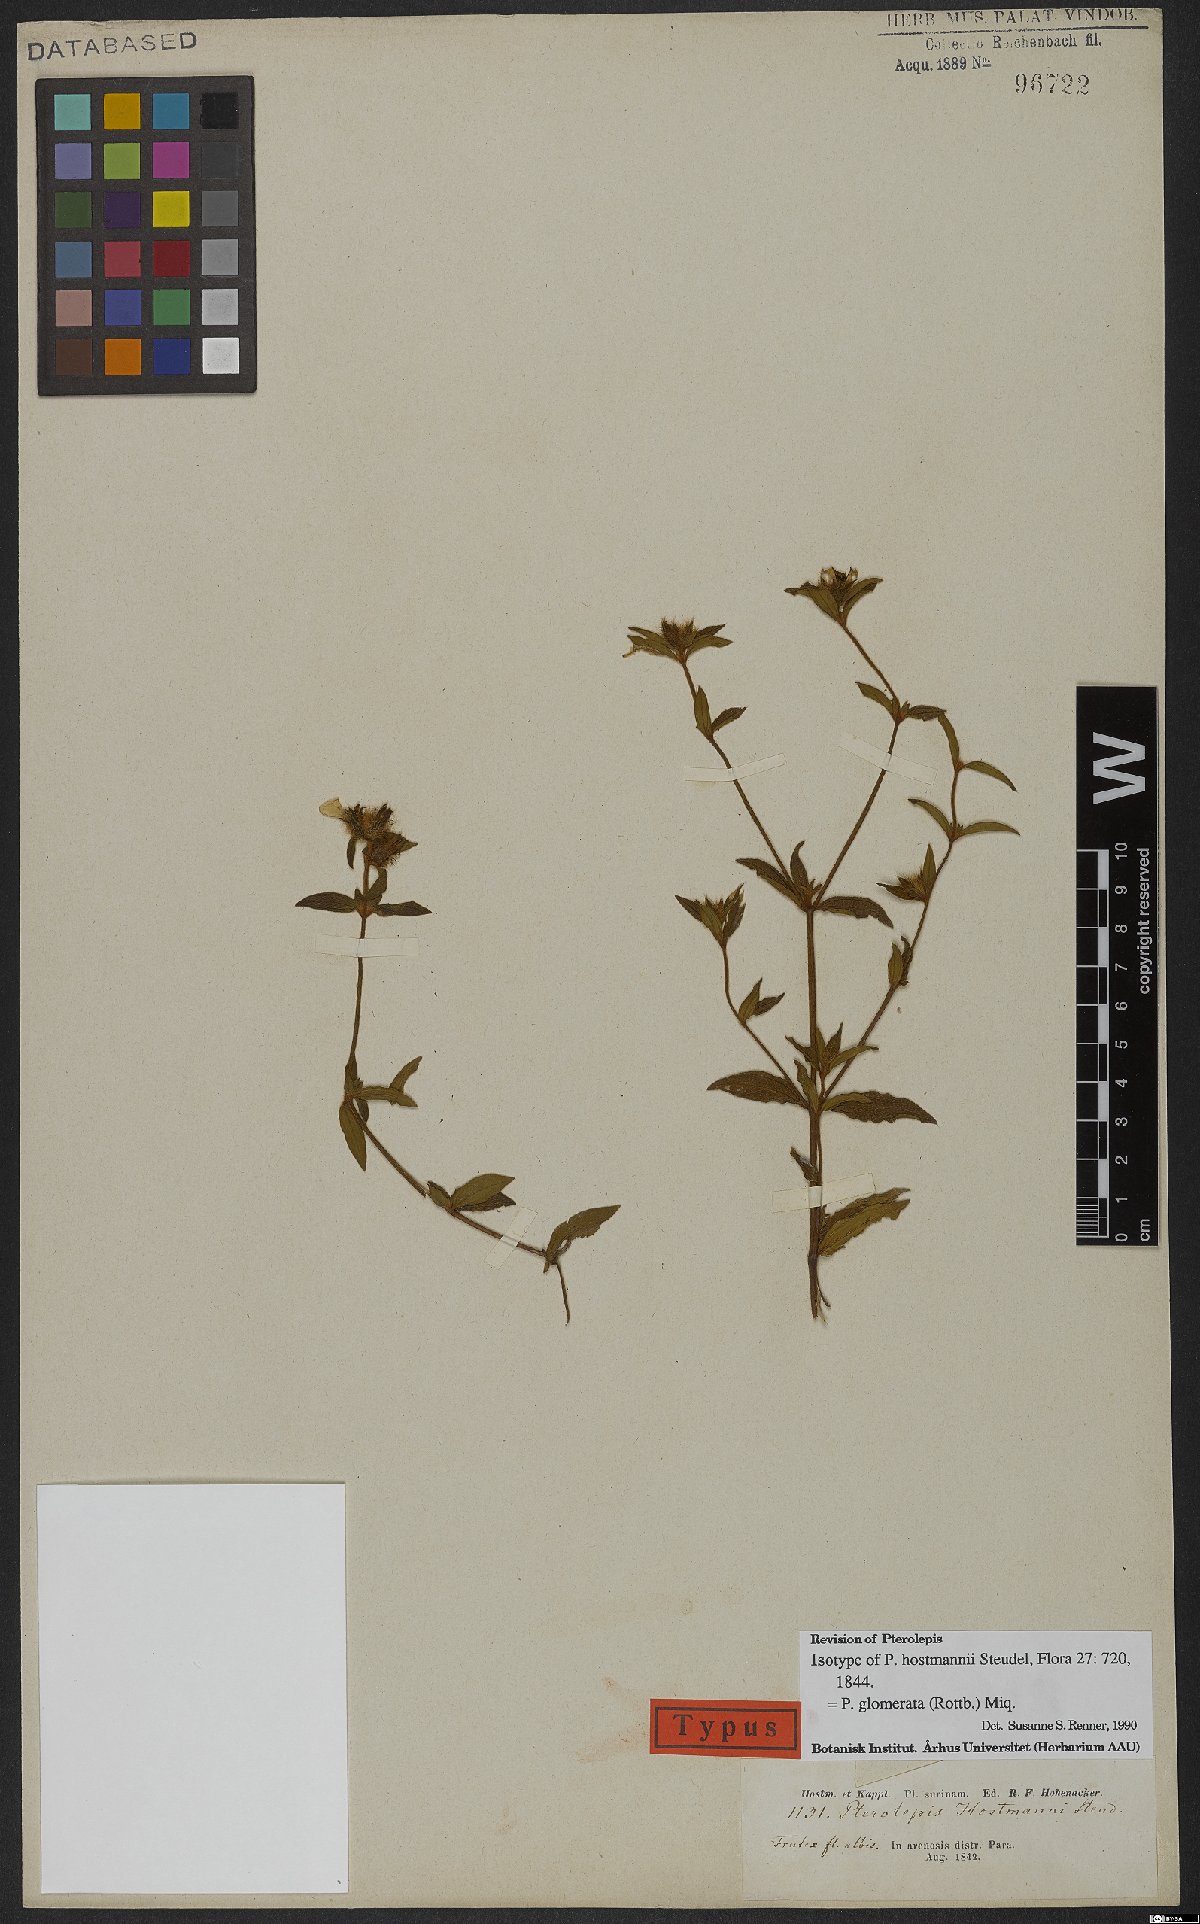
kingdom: Plantae
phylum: Tracheophyta
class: Magnoliopsida
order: Myrtales
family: Melastomataceae
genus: Pterolepis
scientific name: Pterolepis glomerata
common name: False meadowbeauty
